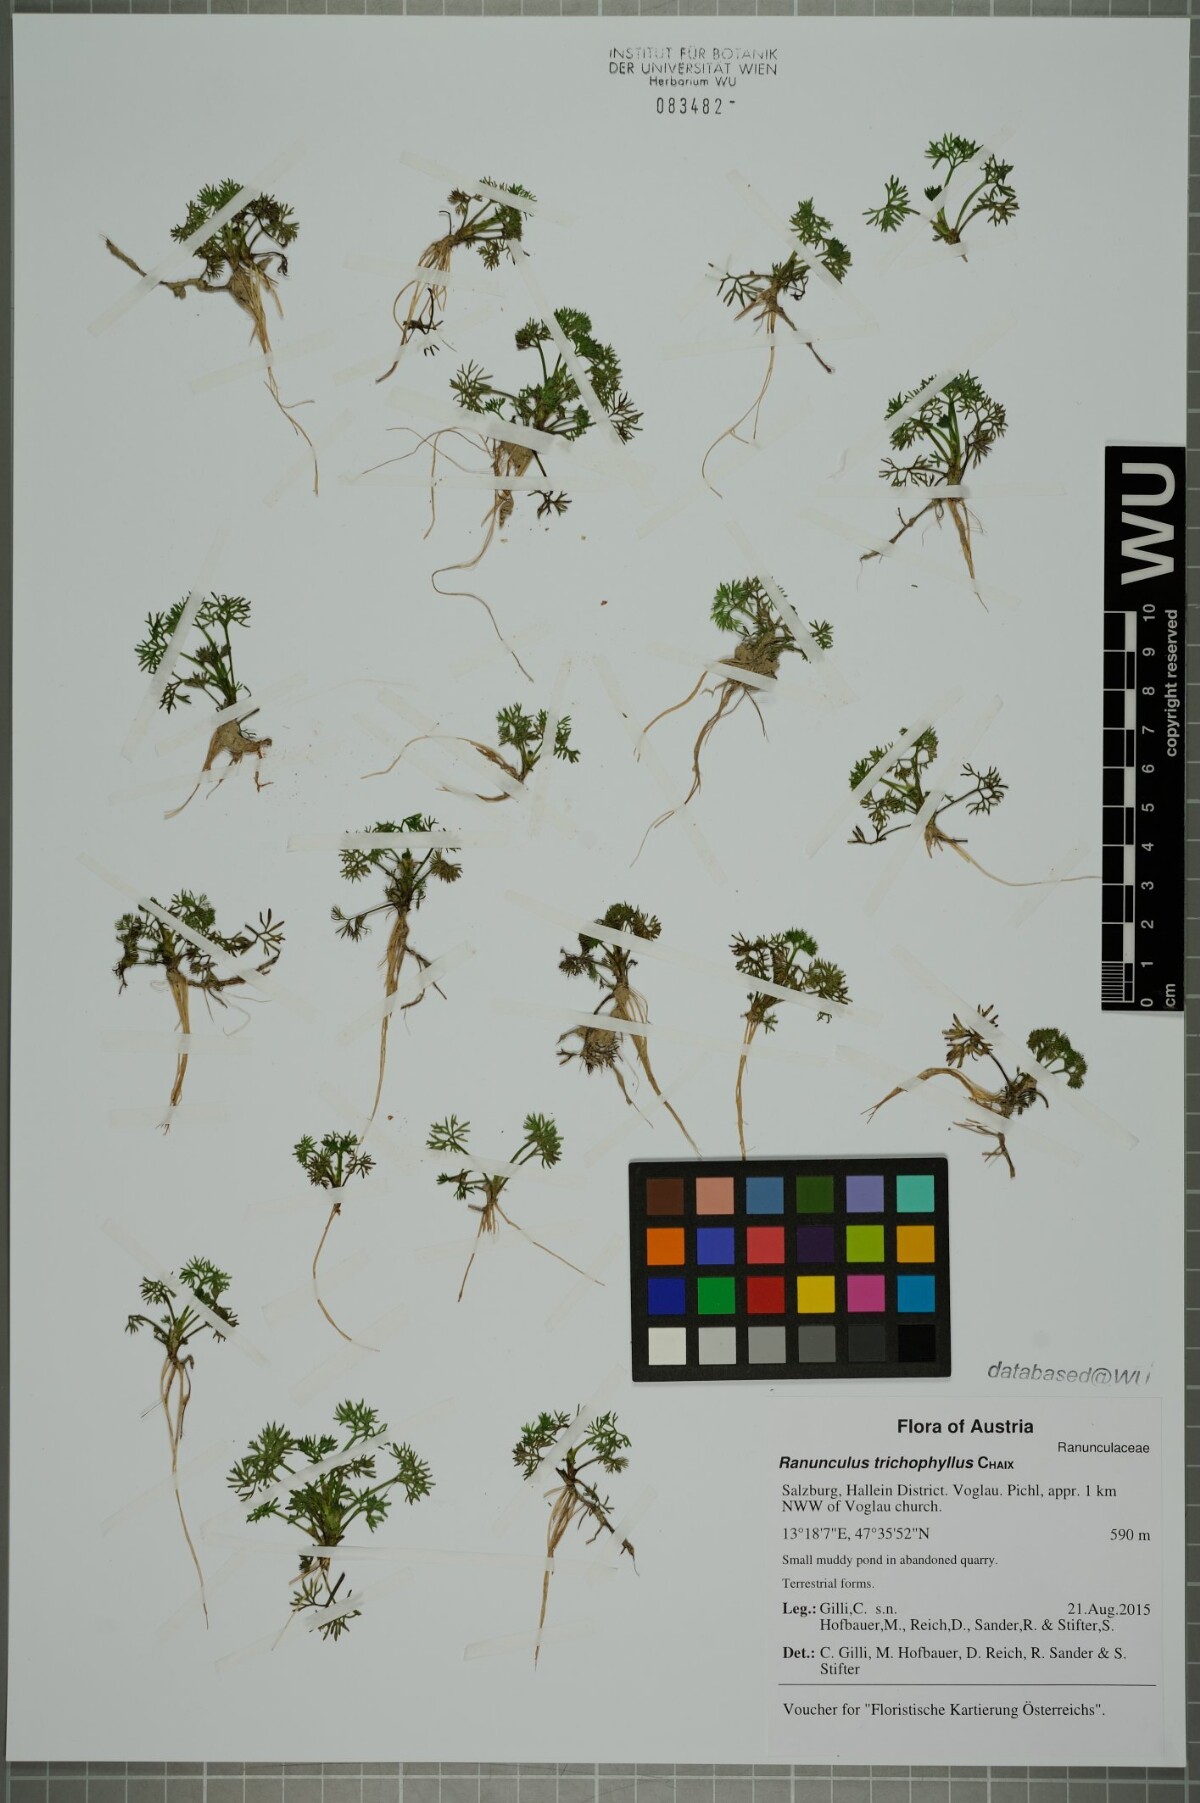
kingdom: Plantae
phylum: Tracheophyta
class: Magnoliopsida
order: Ranunculales
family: Ranunculaceae
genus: Ranunculus
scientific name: Ranunculus trichophyllus
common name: Thread-leaved water-crowfoot
